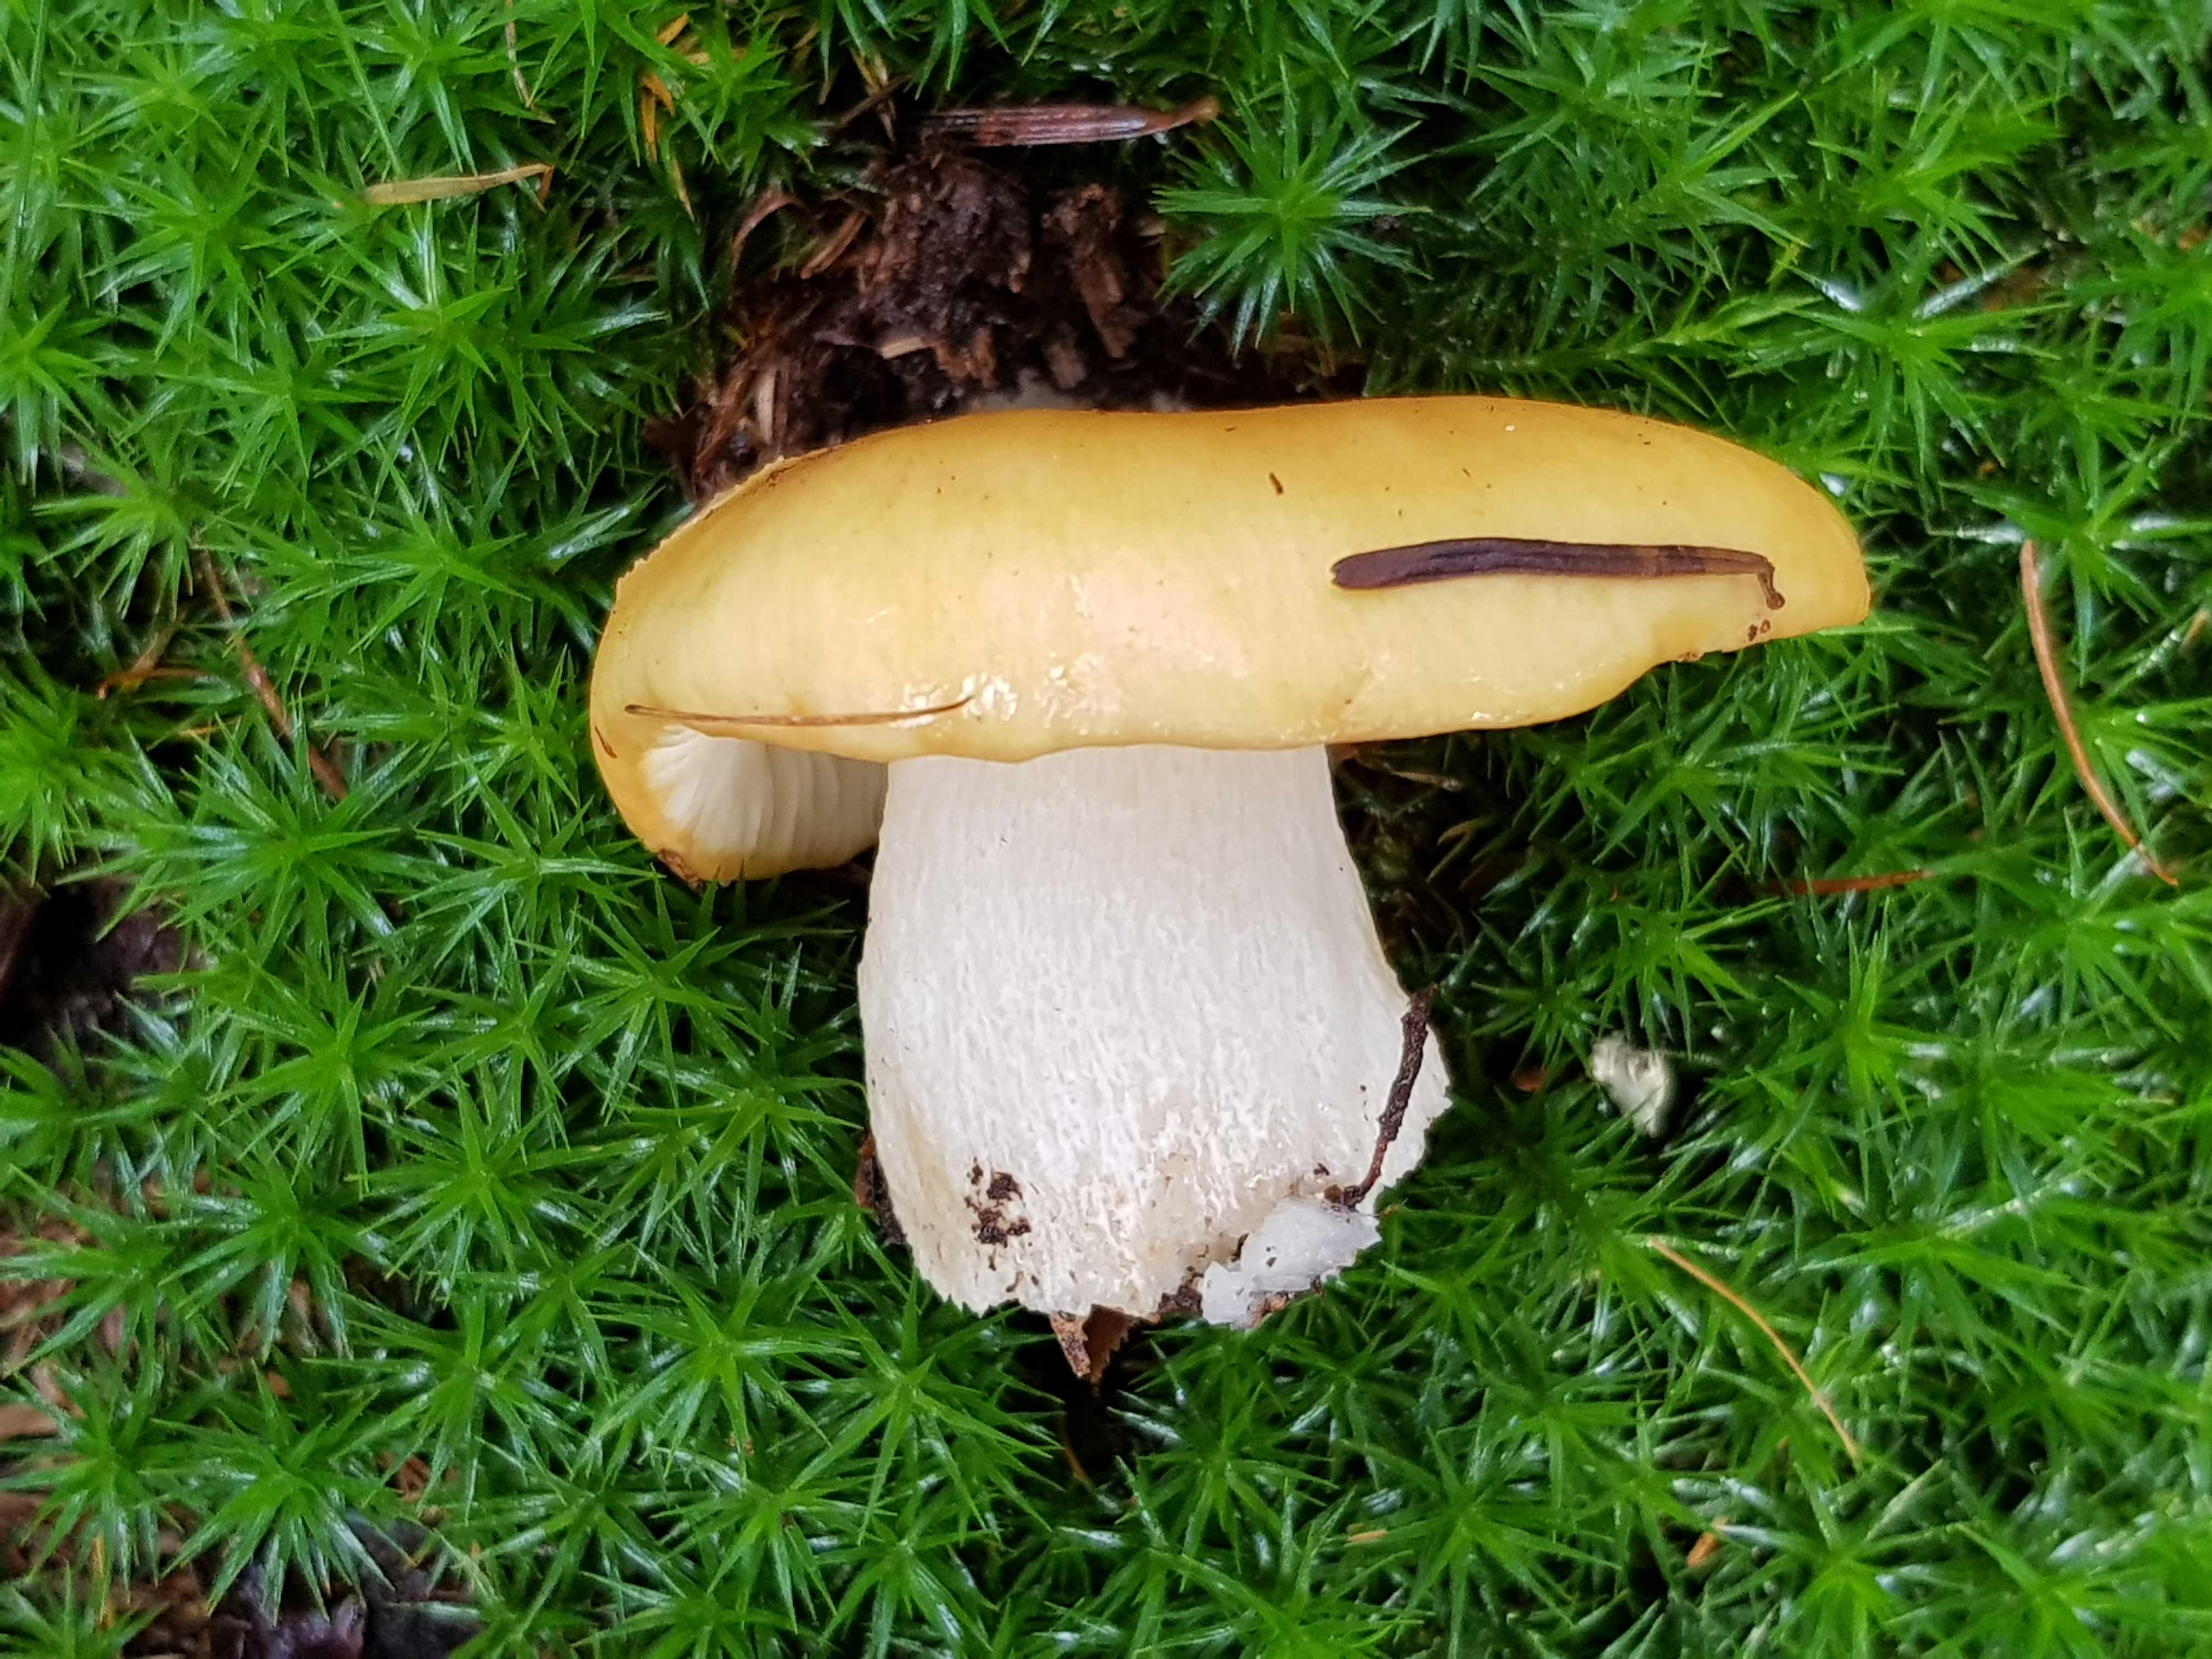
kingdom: Fungi
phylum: Basidiomycota
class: Agaricomycetes
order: Russulales
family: Russulaceae
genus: Russula
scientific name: Russula ochroleuca
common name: okkergul skørhat
